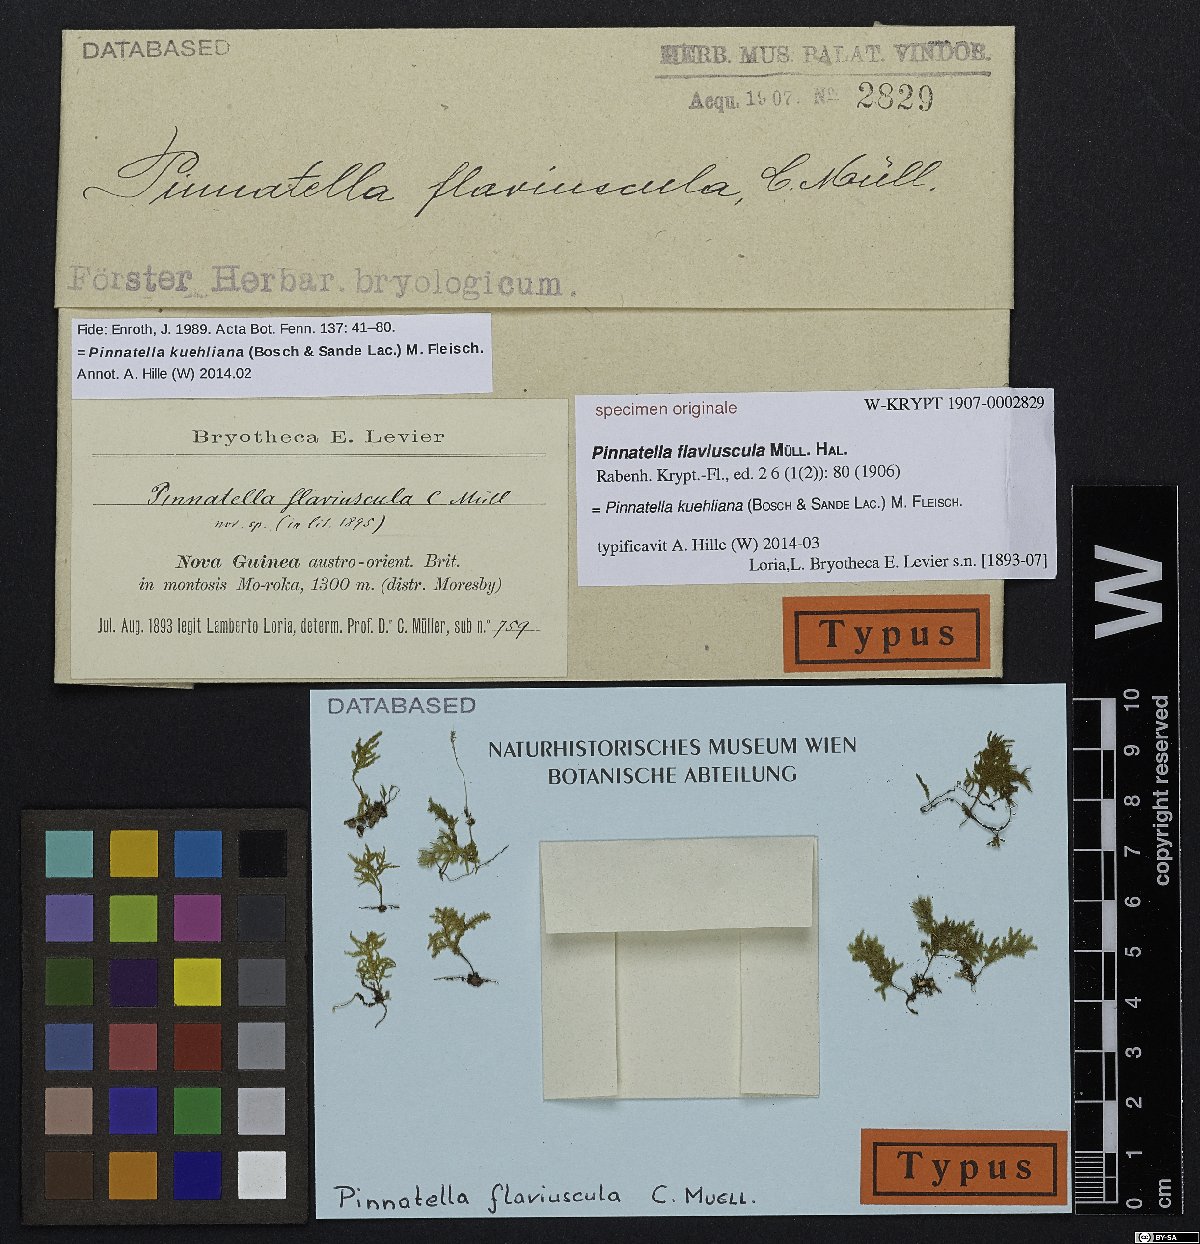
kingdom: Plantae
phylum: Bryophyta
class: Bryopsida
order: Hypnales
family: Neckeraceae
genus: Pinnatella
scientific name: Pinnatella
